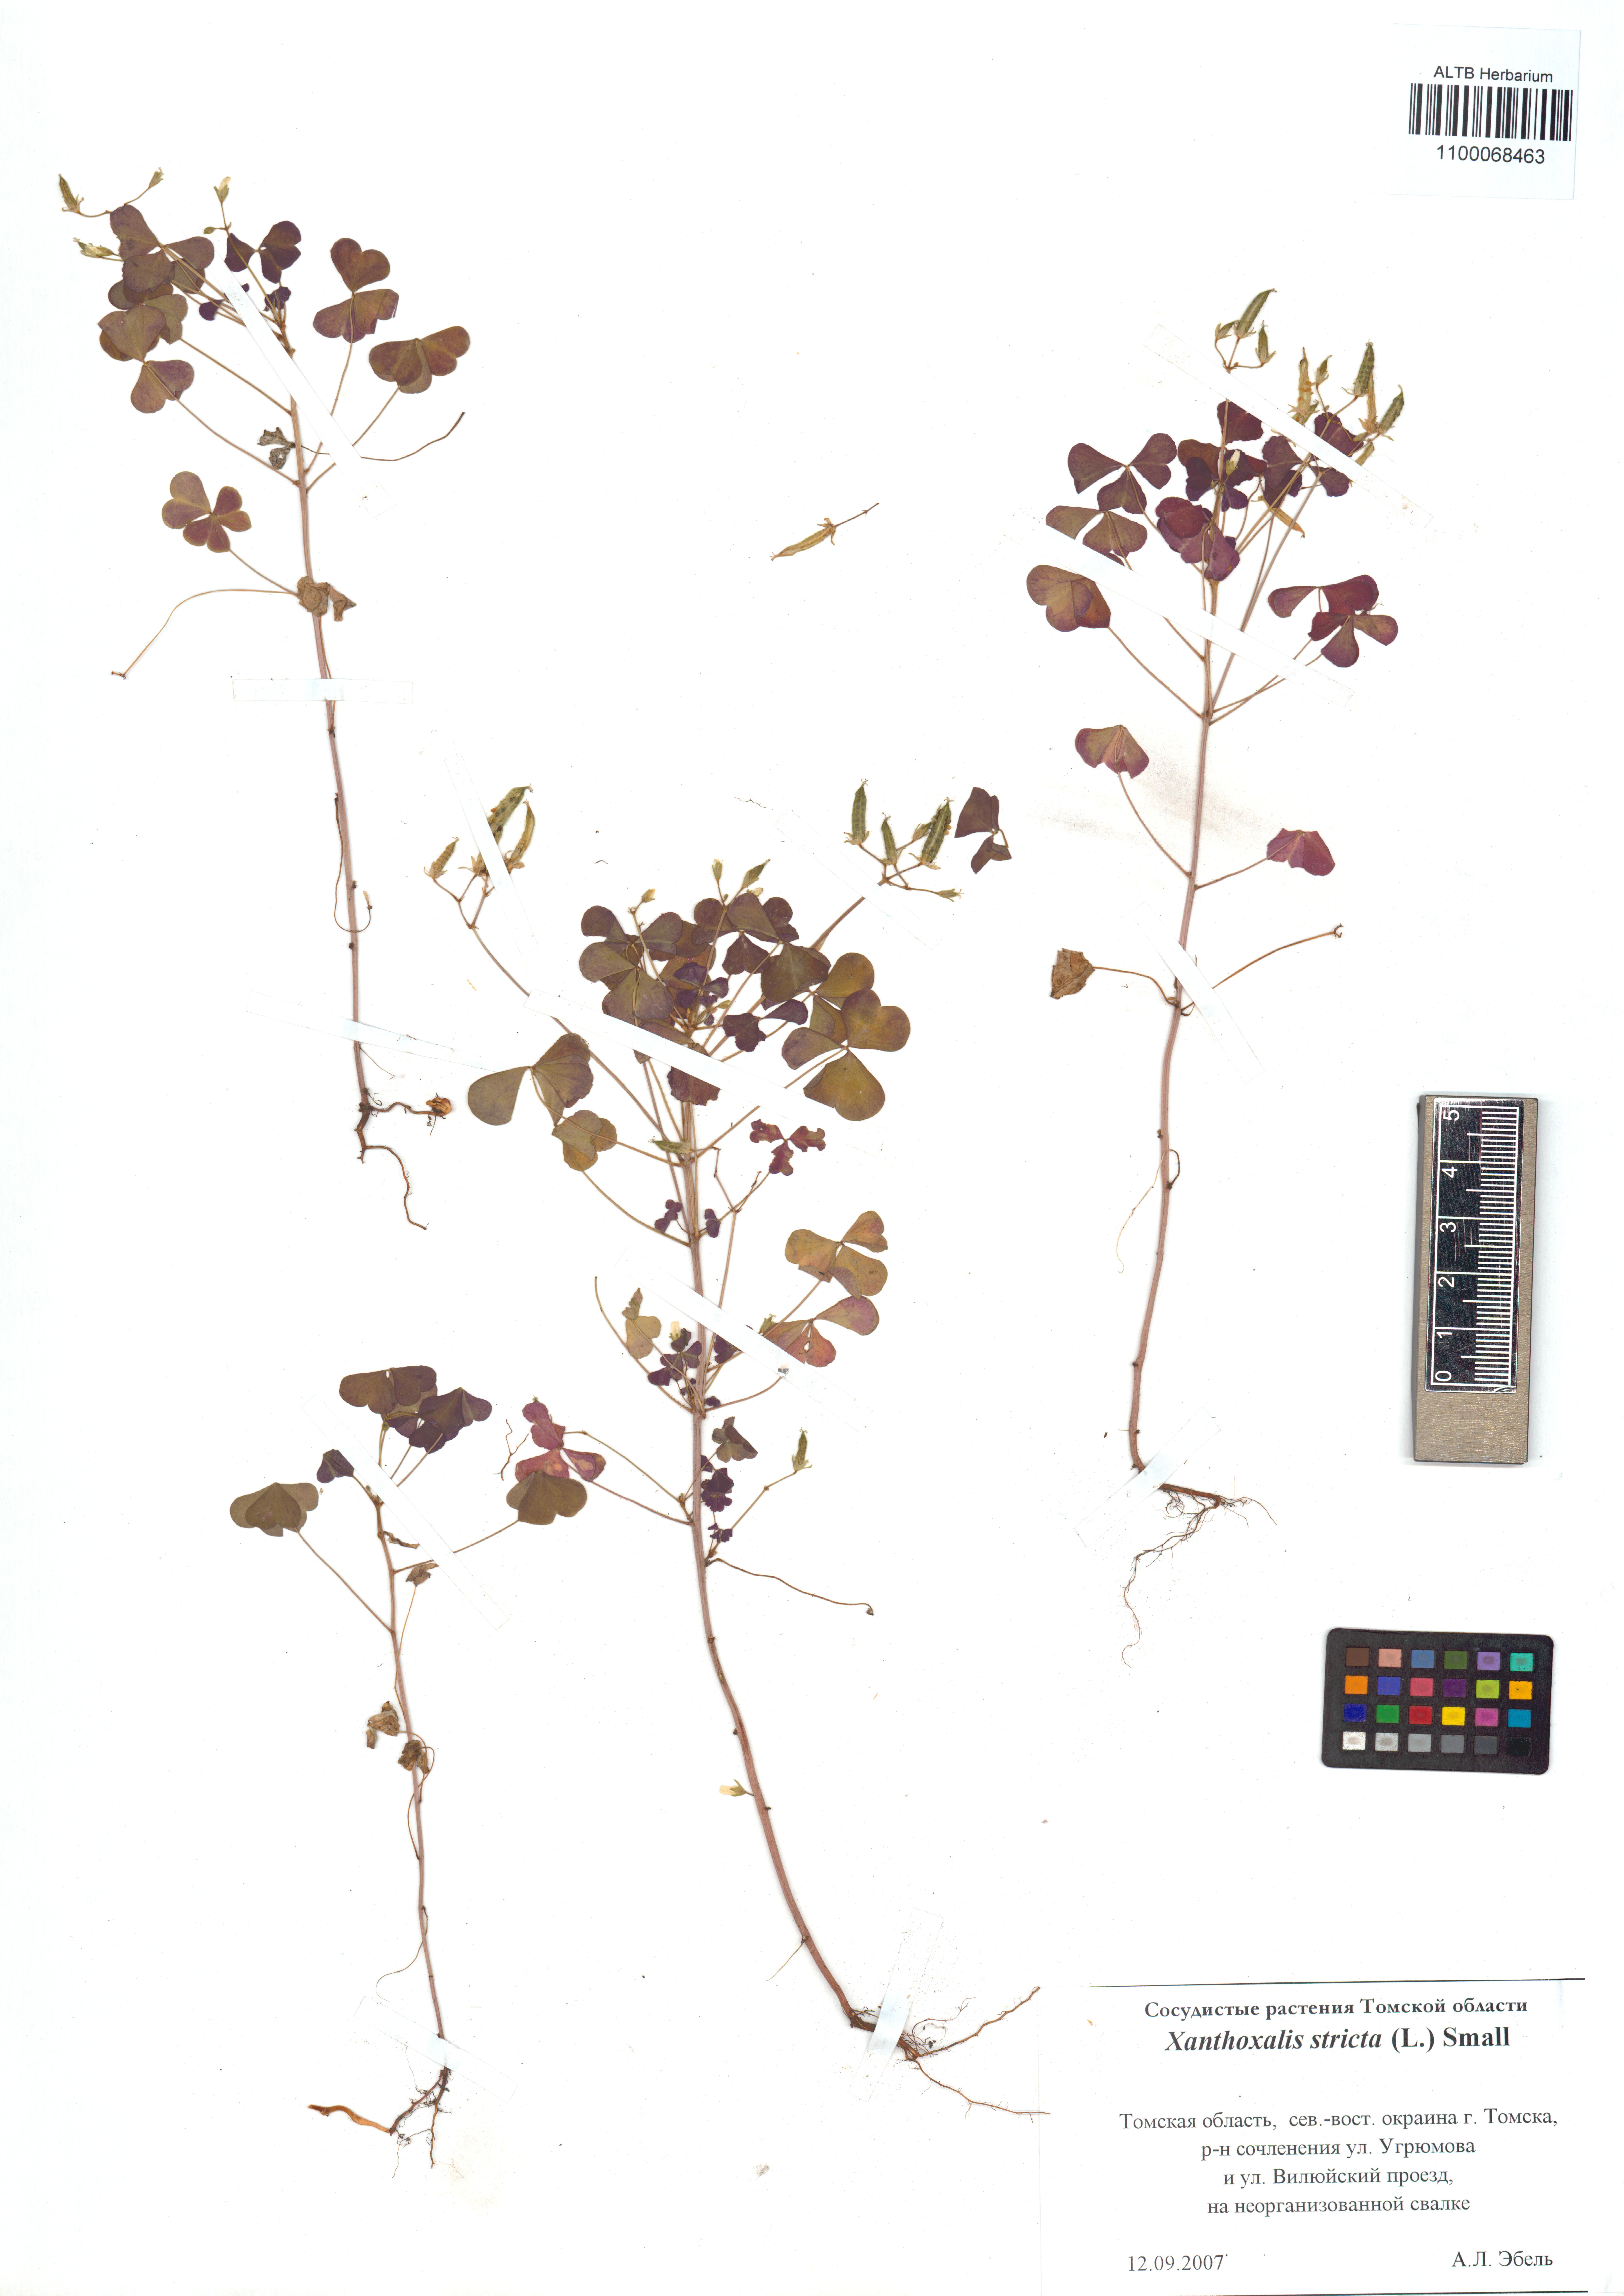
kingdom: Plantae
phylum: Tracheophyta
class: Magnoliopsida
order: Oxalidales
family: Oxalidaceae
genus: Oxalis
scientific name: Oxalis stricta
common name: Upright yellow-sorrel
